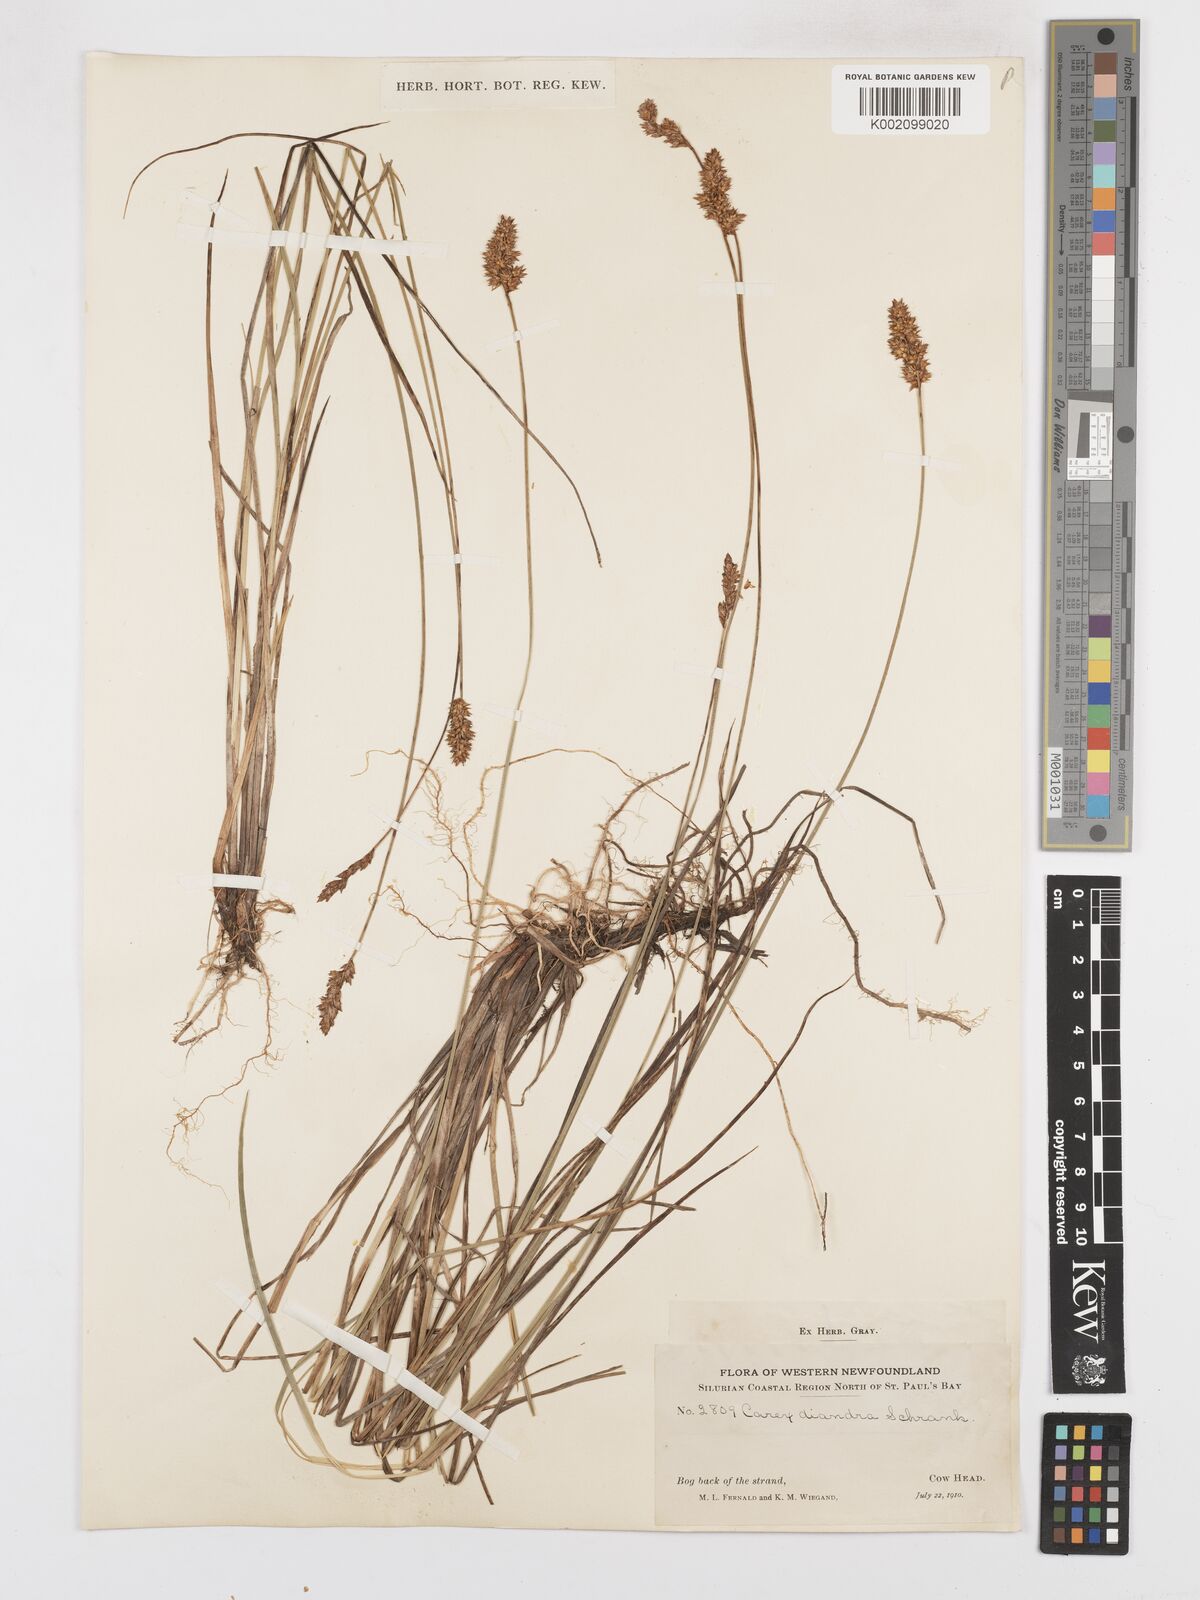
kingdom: Plantae
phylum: Tracheophyta
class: Liliopsida
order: Poales
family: Cyperaceae
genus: Carex
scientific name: Carex diandra
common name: Lesser tussock-sedge
